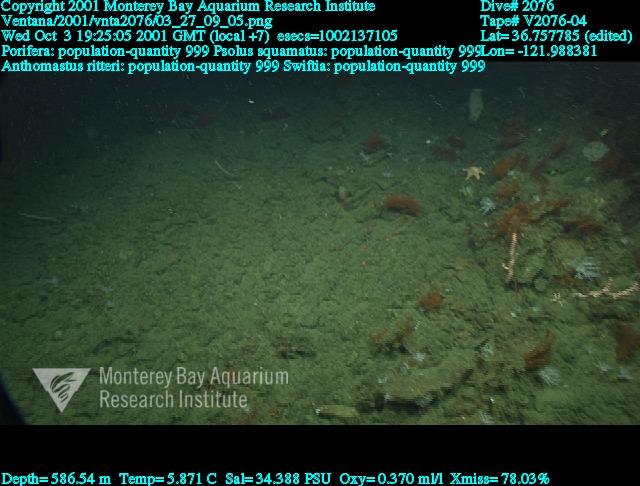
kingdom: Animalia
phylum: Porifera
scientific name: Porifera
